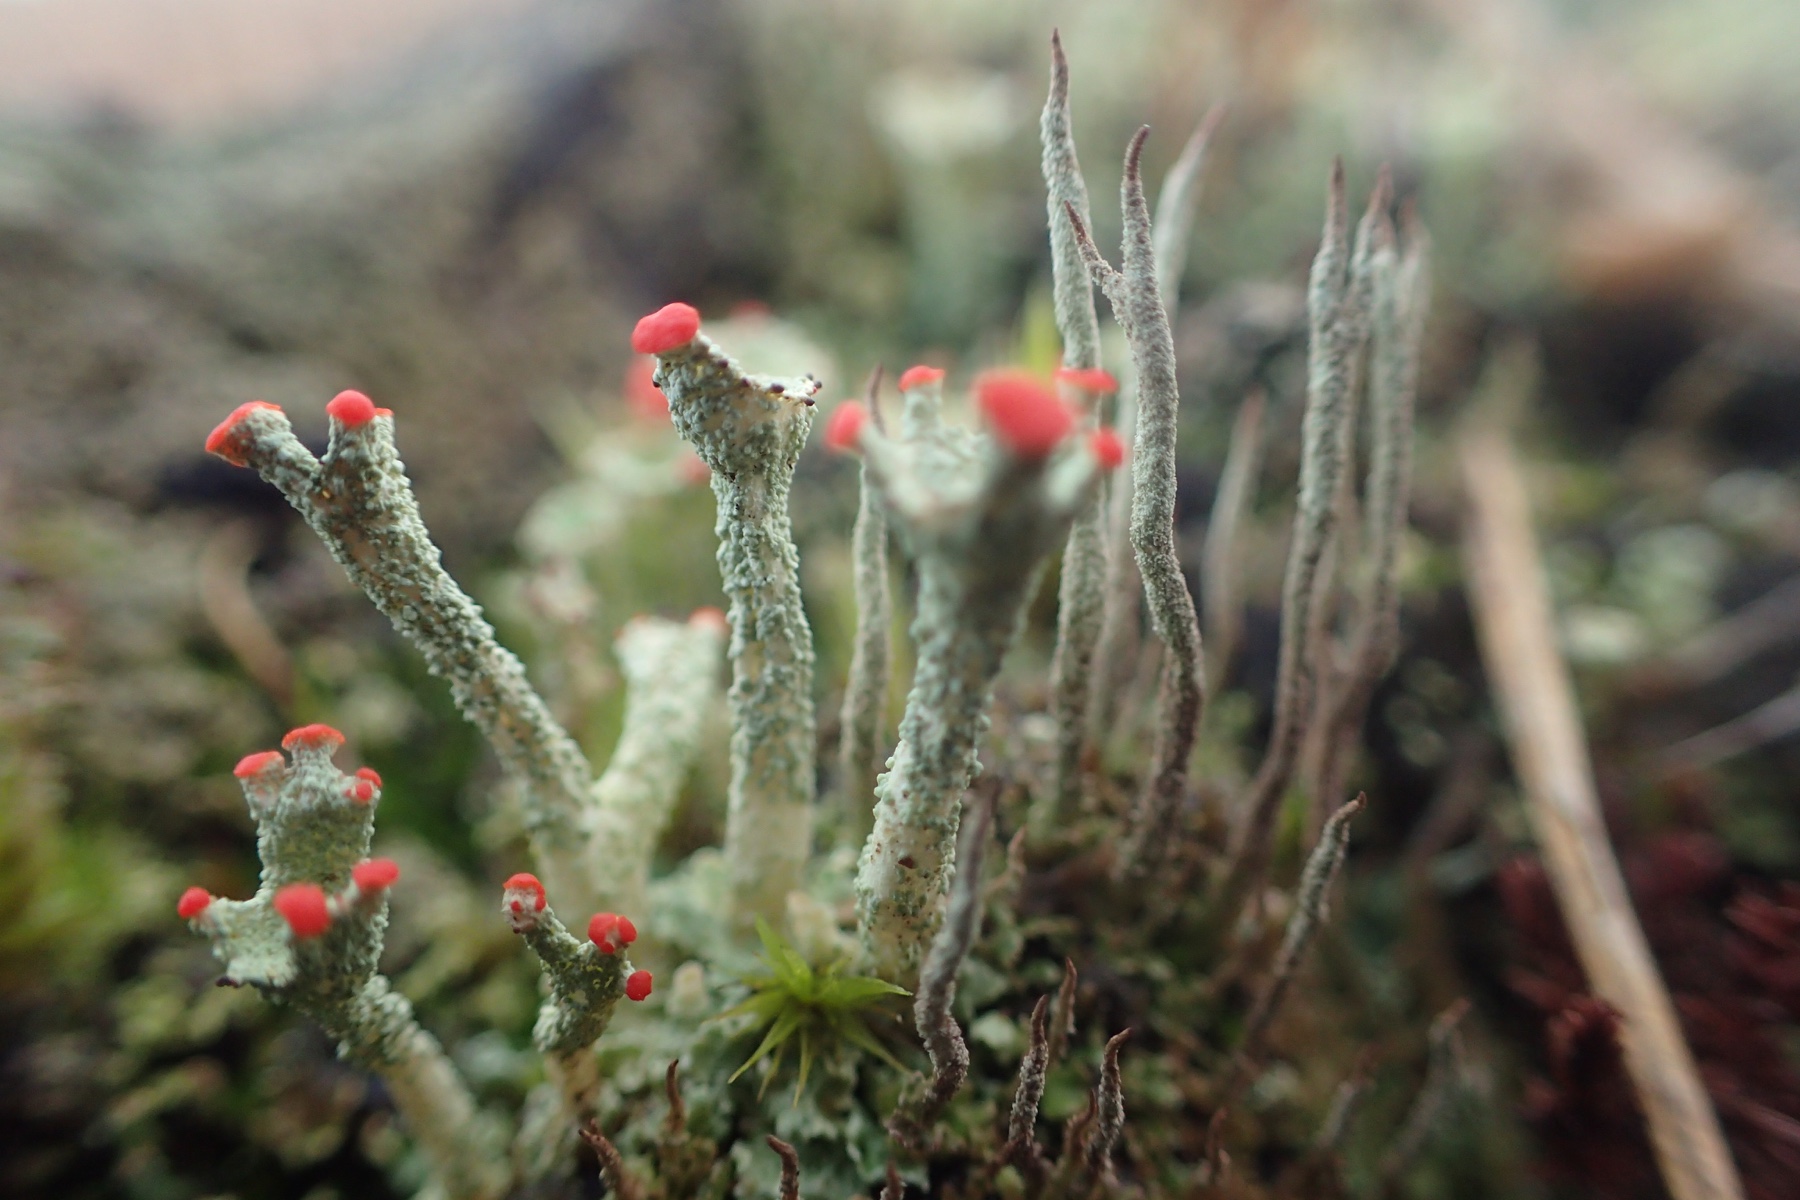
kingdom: Fungi
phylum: Ascomycota
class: Lecanoromycetes
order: Lecanorales
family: Cladoniaceae
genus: Cladonia
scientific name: Cladonia cornuta
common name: syl-bægerlav
